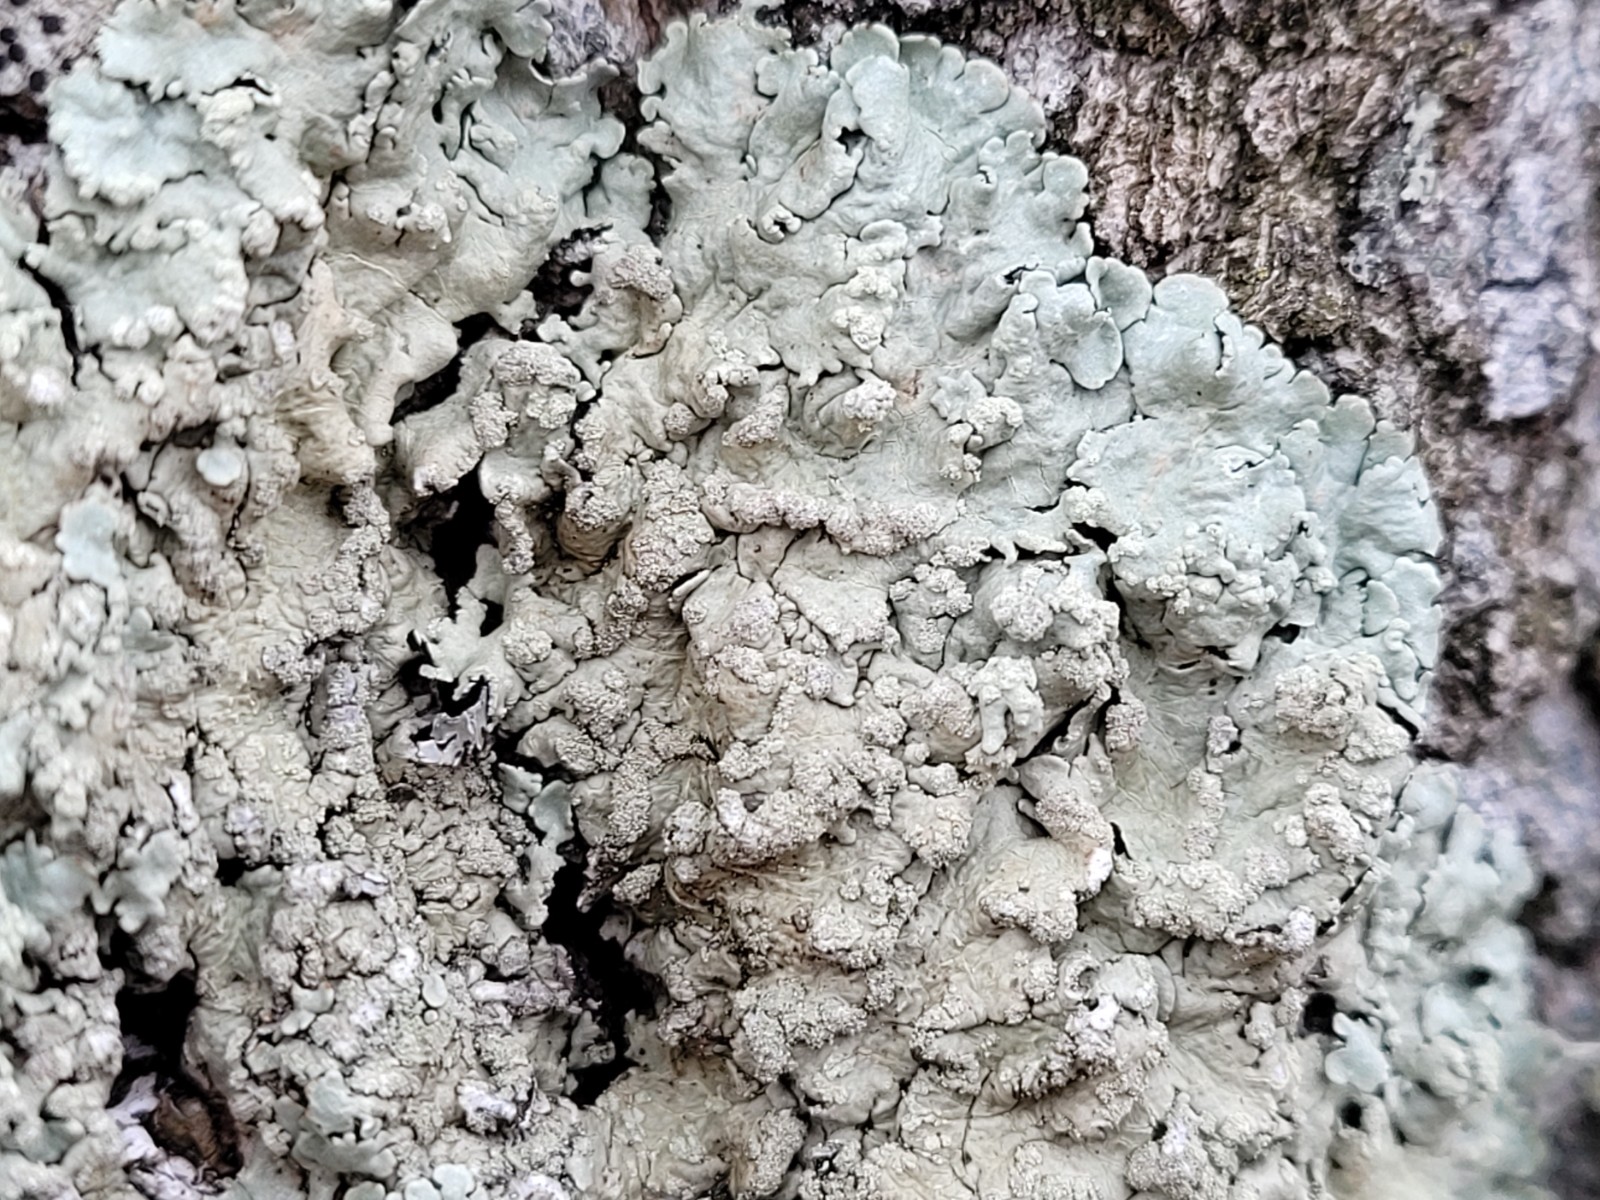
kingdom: Fungi
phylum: Ascomycota
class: Lecanoromycetes
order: Lecanorales
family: Parmeliaceae
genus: Flavoparmelia
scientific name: Flavoparmelia soredians
